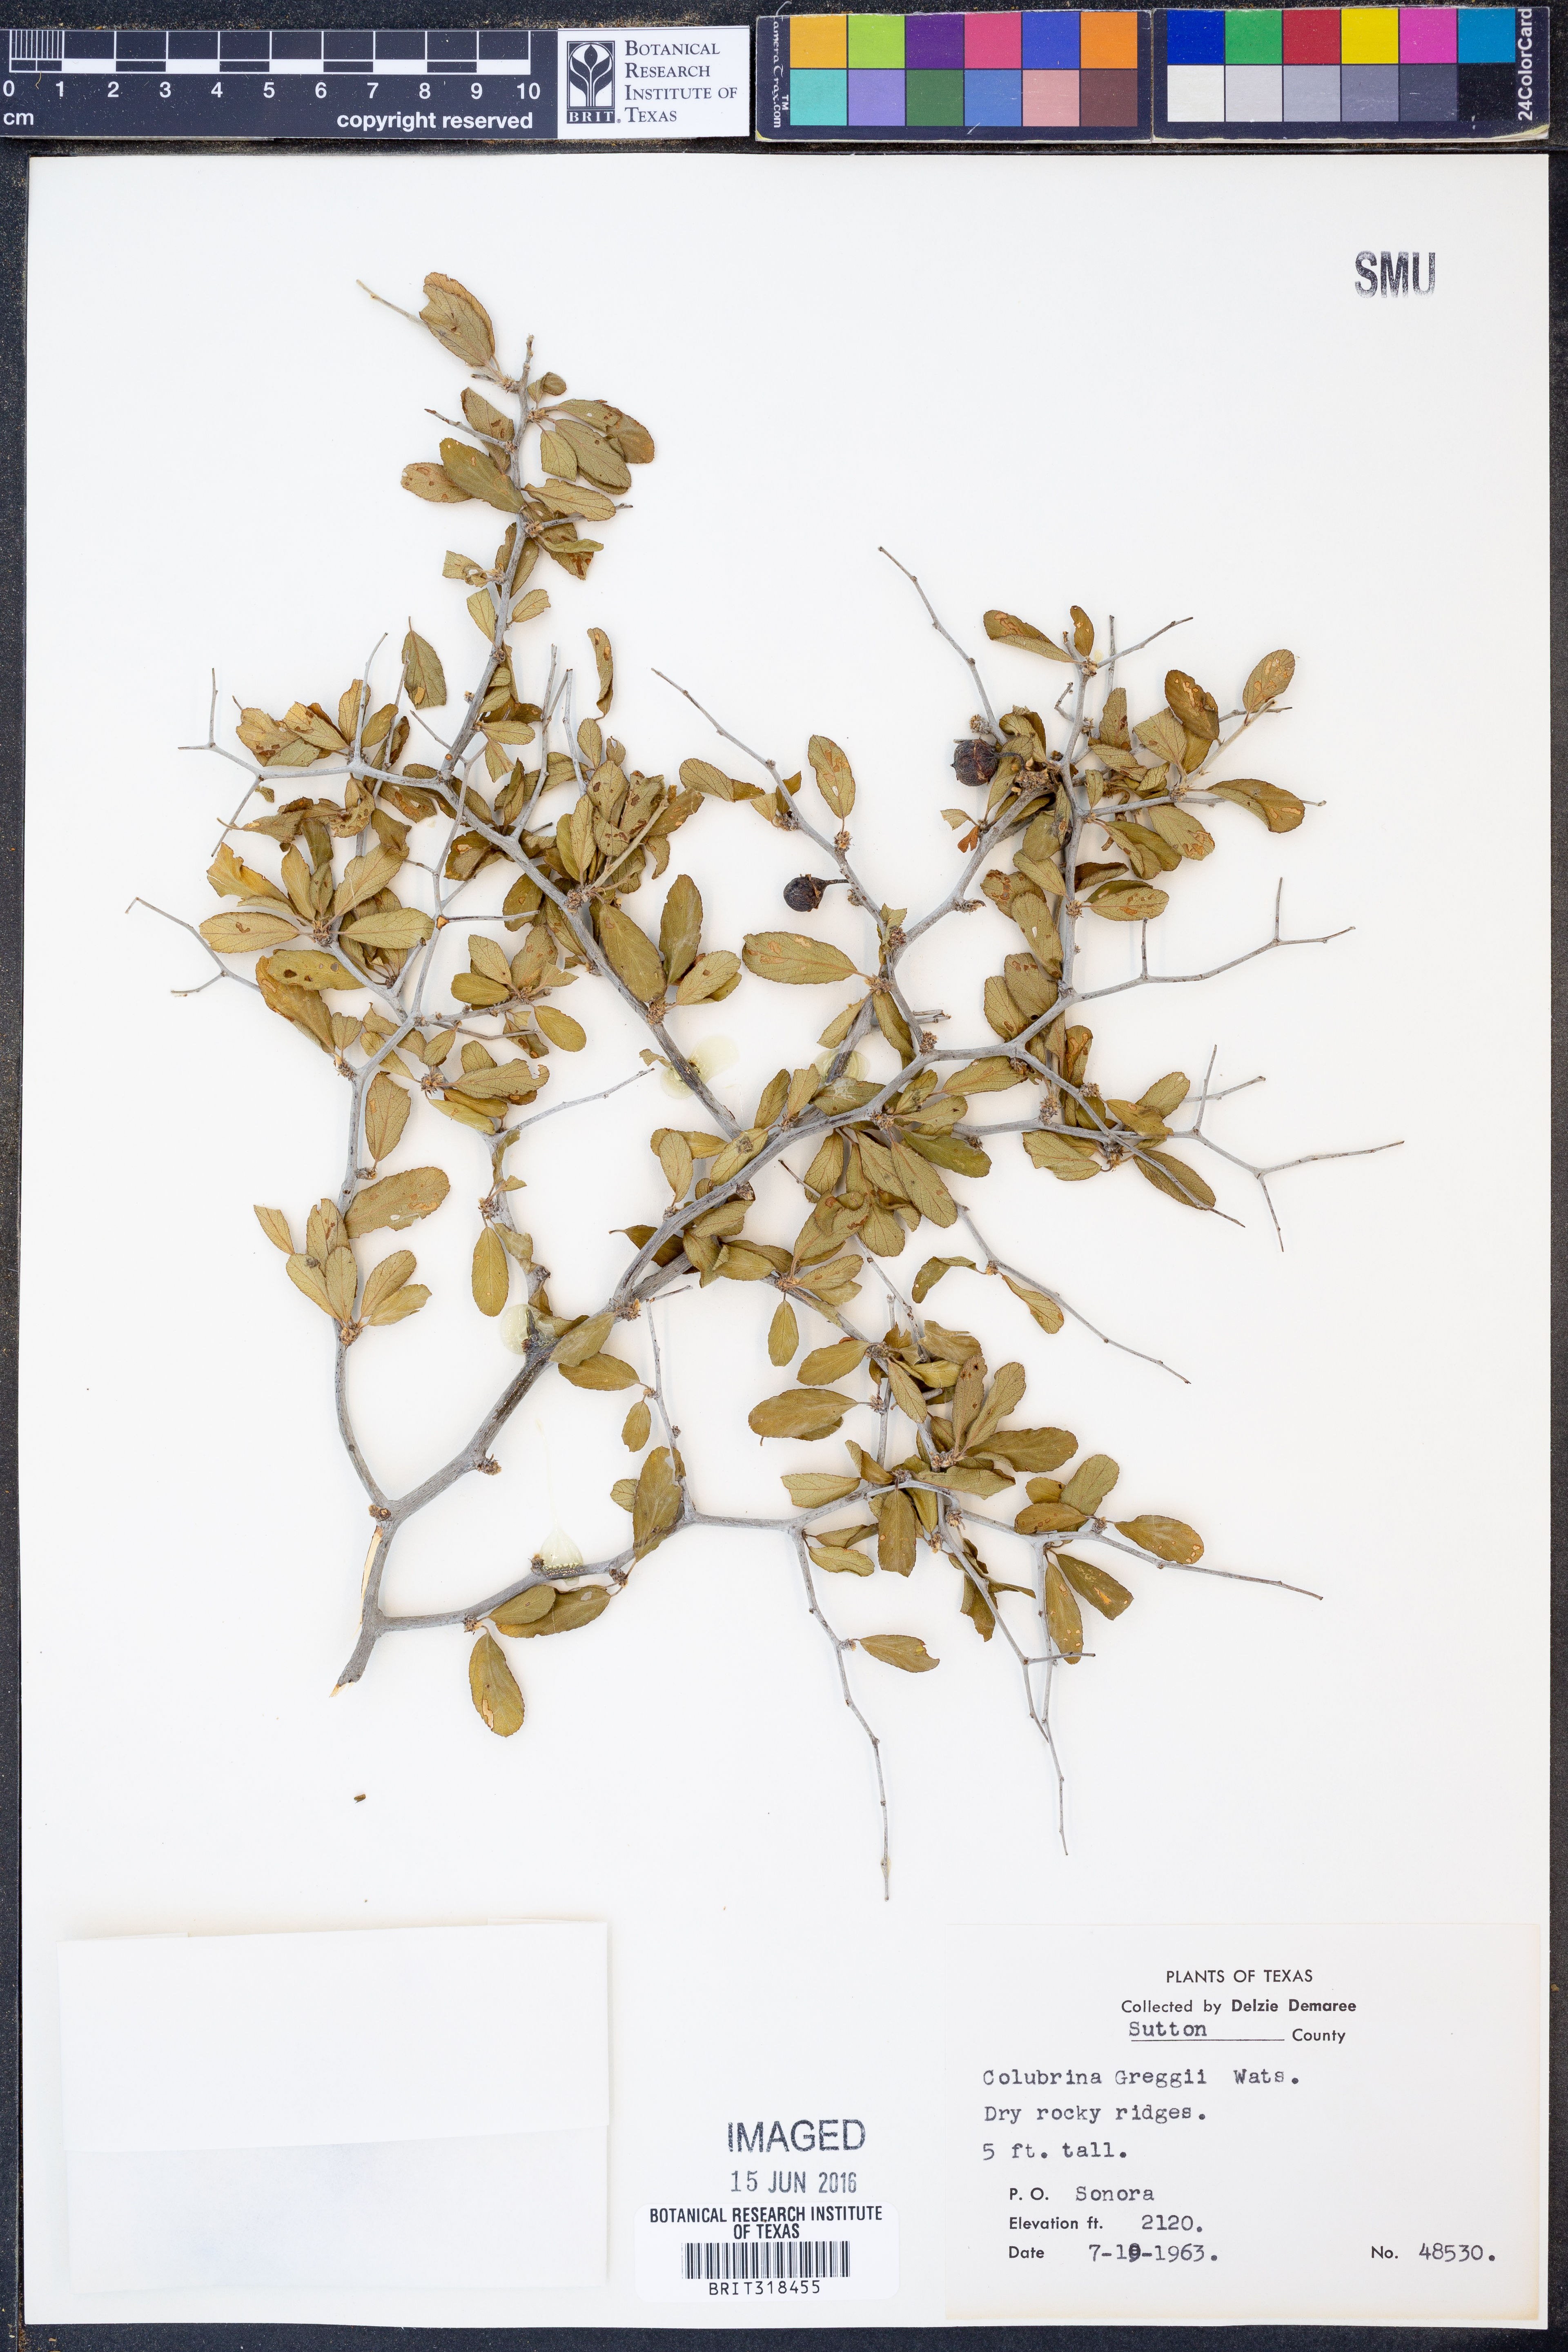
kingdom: Plantae
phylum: Tracheophyta
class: Magnoliopsida
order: Rosales
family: Rhamnaceae
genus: Colubrina
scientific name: Colubrina greggii
